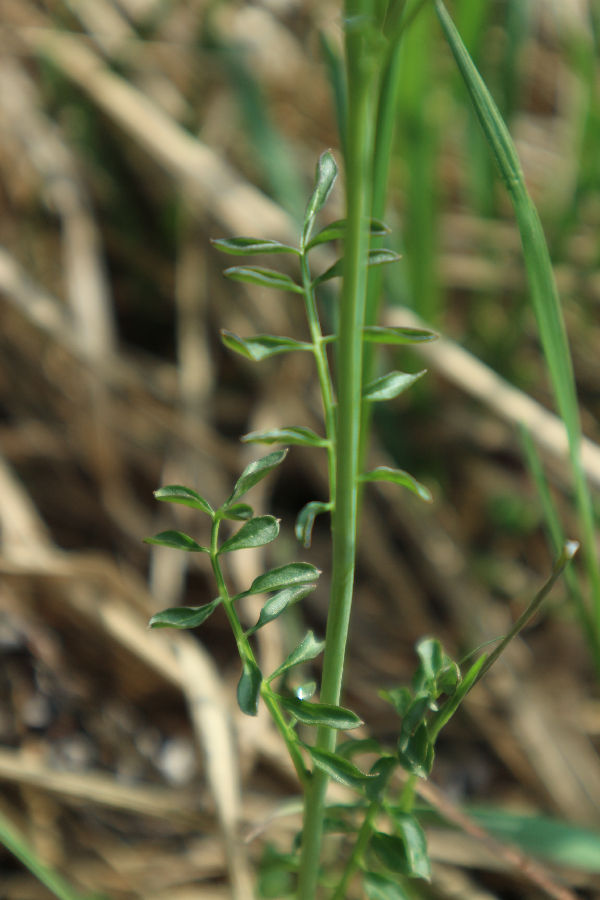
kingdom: Plantae
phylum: Tracheophyta
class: Magnoliopsida
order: Brassicales
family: Brassicaceae
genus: Cardamine
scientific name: Cardamine pratensis
